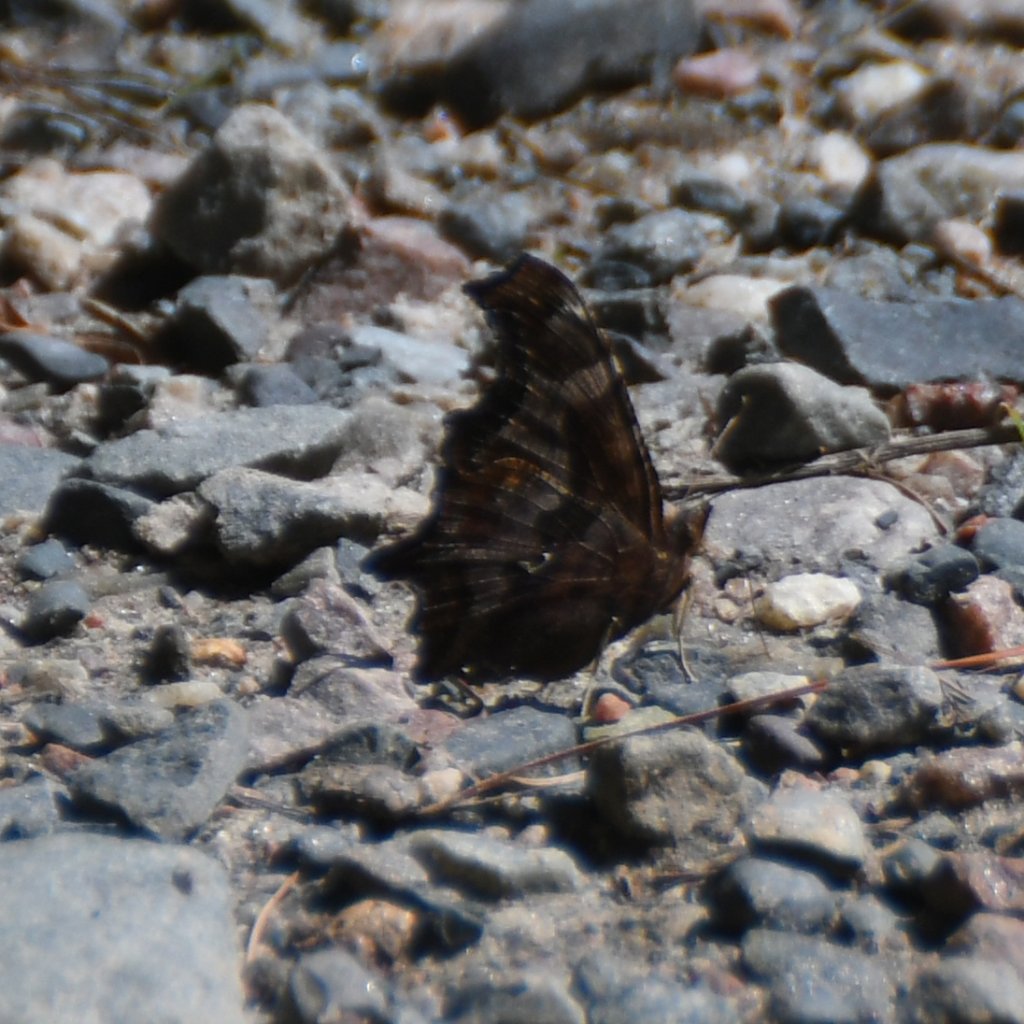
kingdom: Animalia
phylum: Arthropoda
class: Insecta
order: Lepidoptera
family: Nymphalidae
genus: Polygonia
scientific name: Polygonia comma
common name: Eastern Comma
